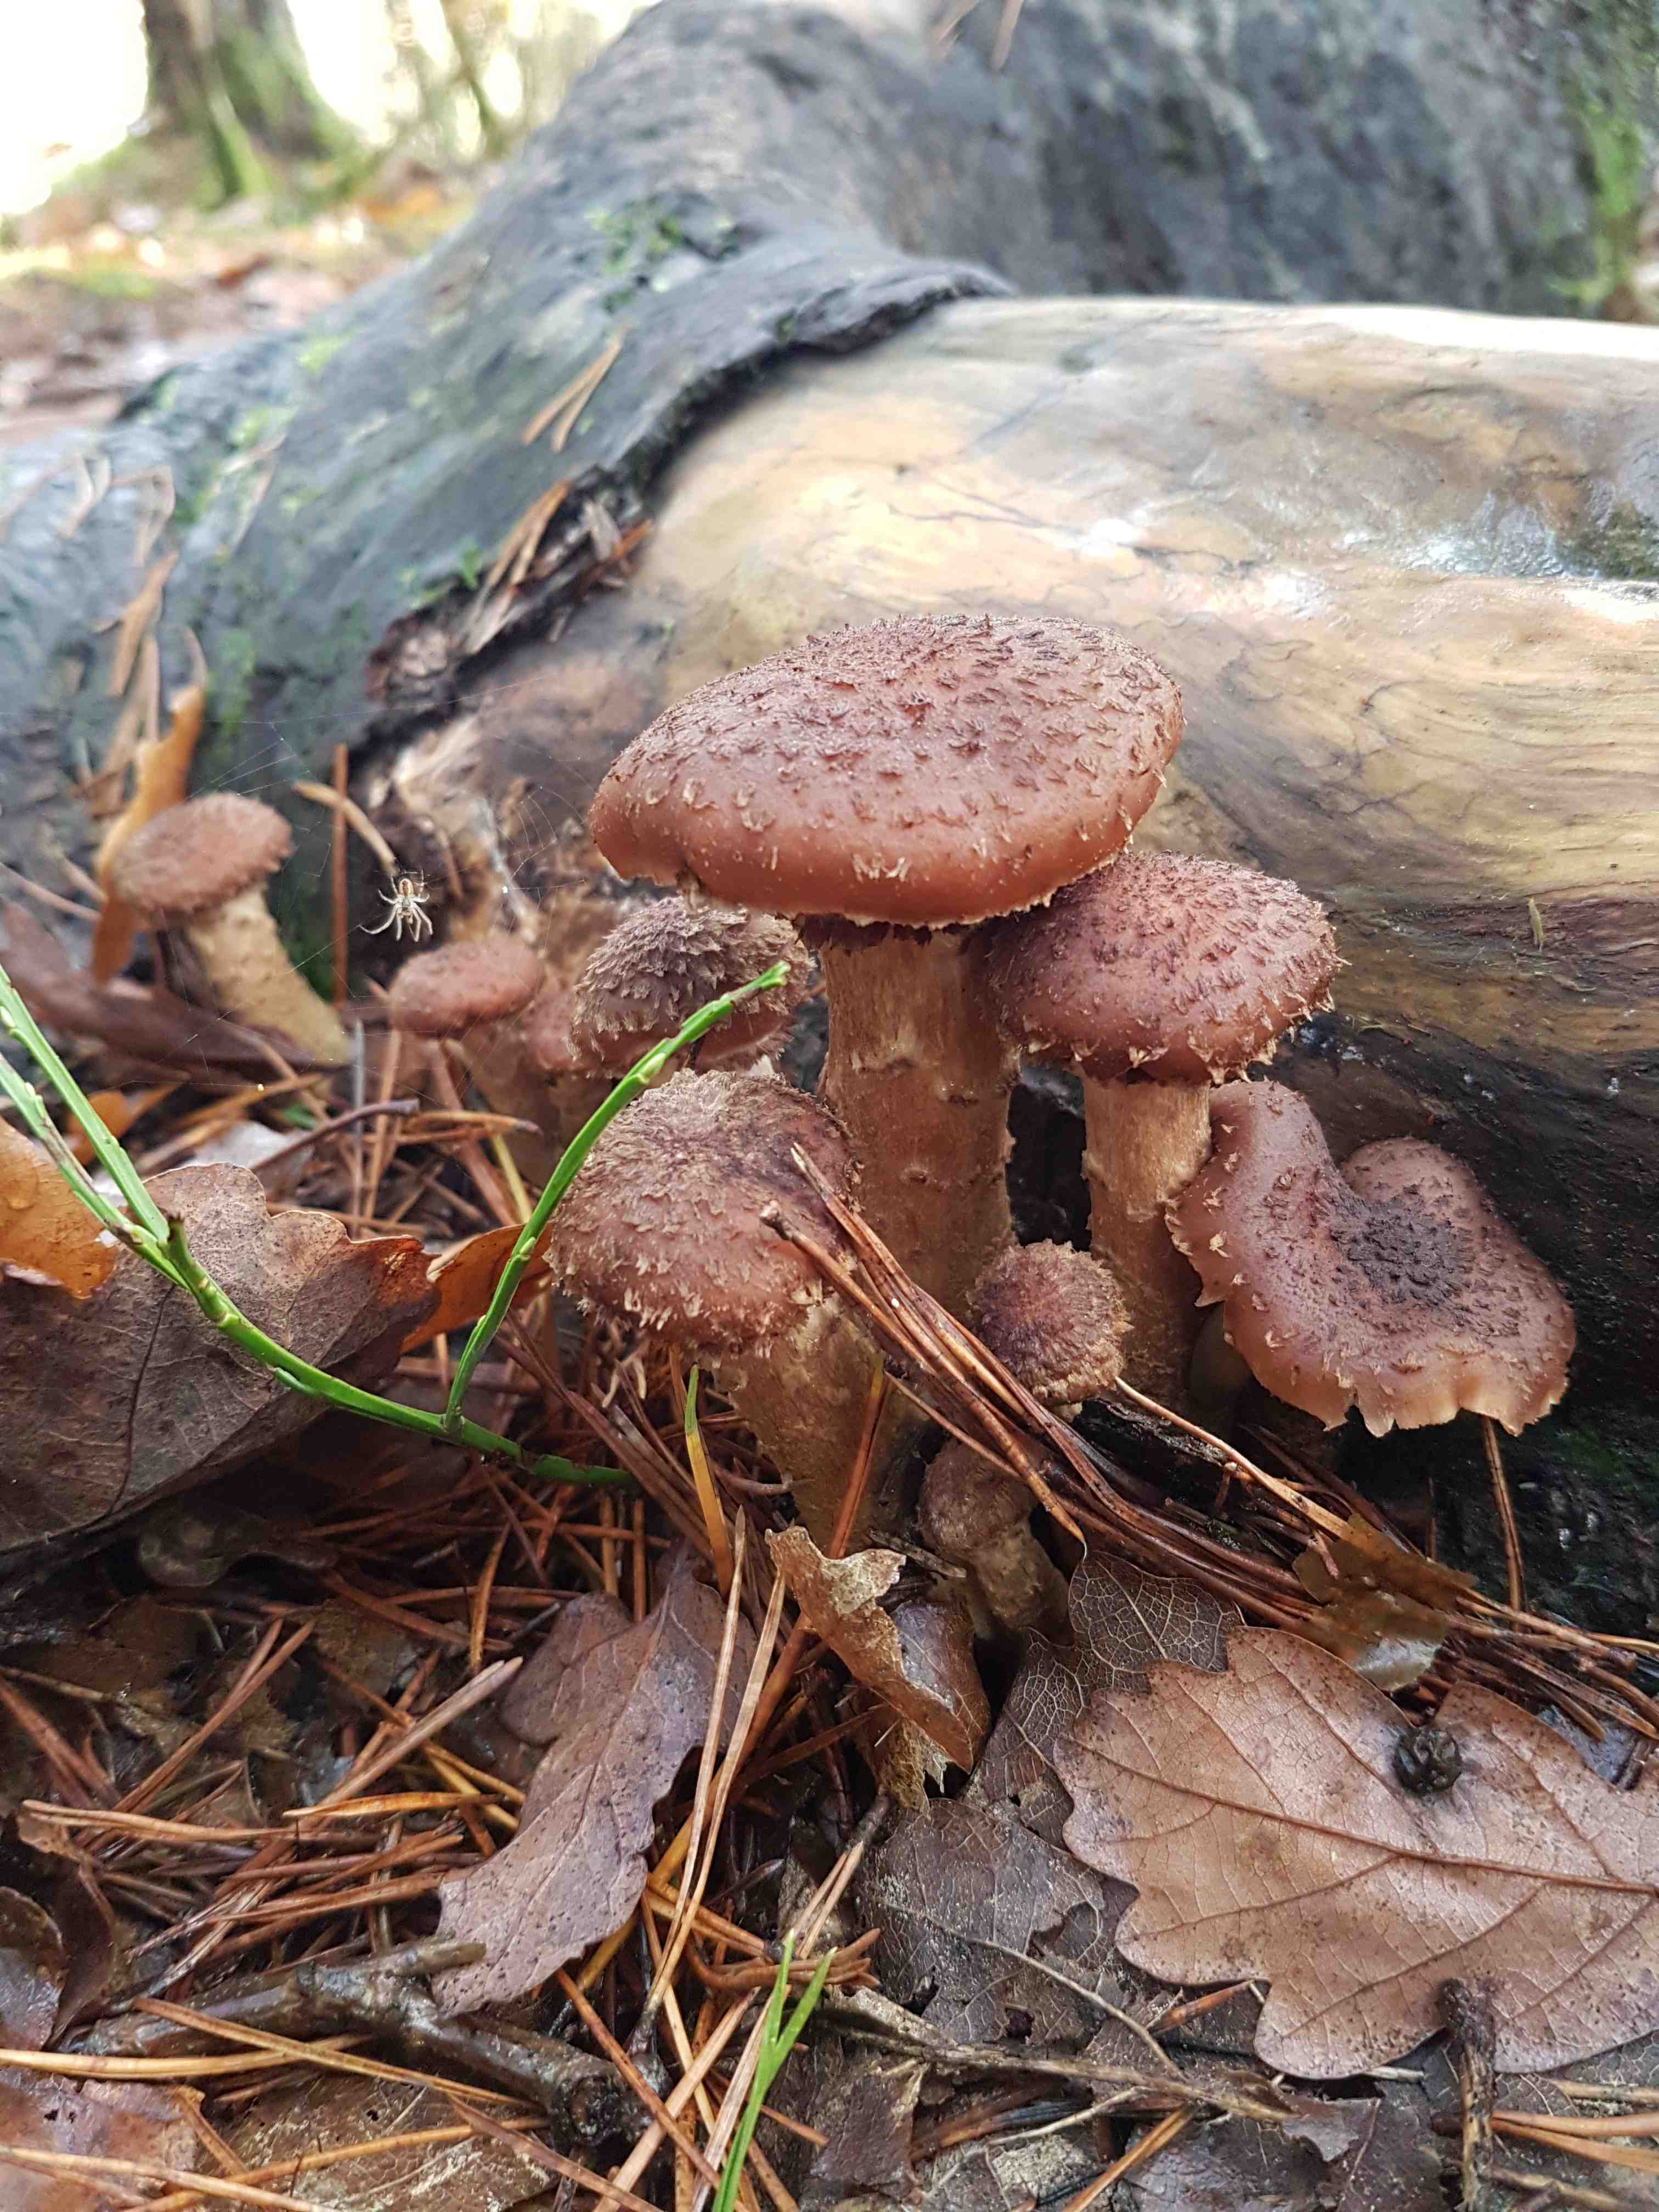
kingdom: Fungi
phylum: Basidiomycota
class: Agaricomycetes
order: Agaricales
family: Physalacriaceae
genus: Armillaria
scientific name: Armillaria ostoyae
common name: mørk honningsvamp
